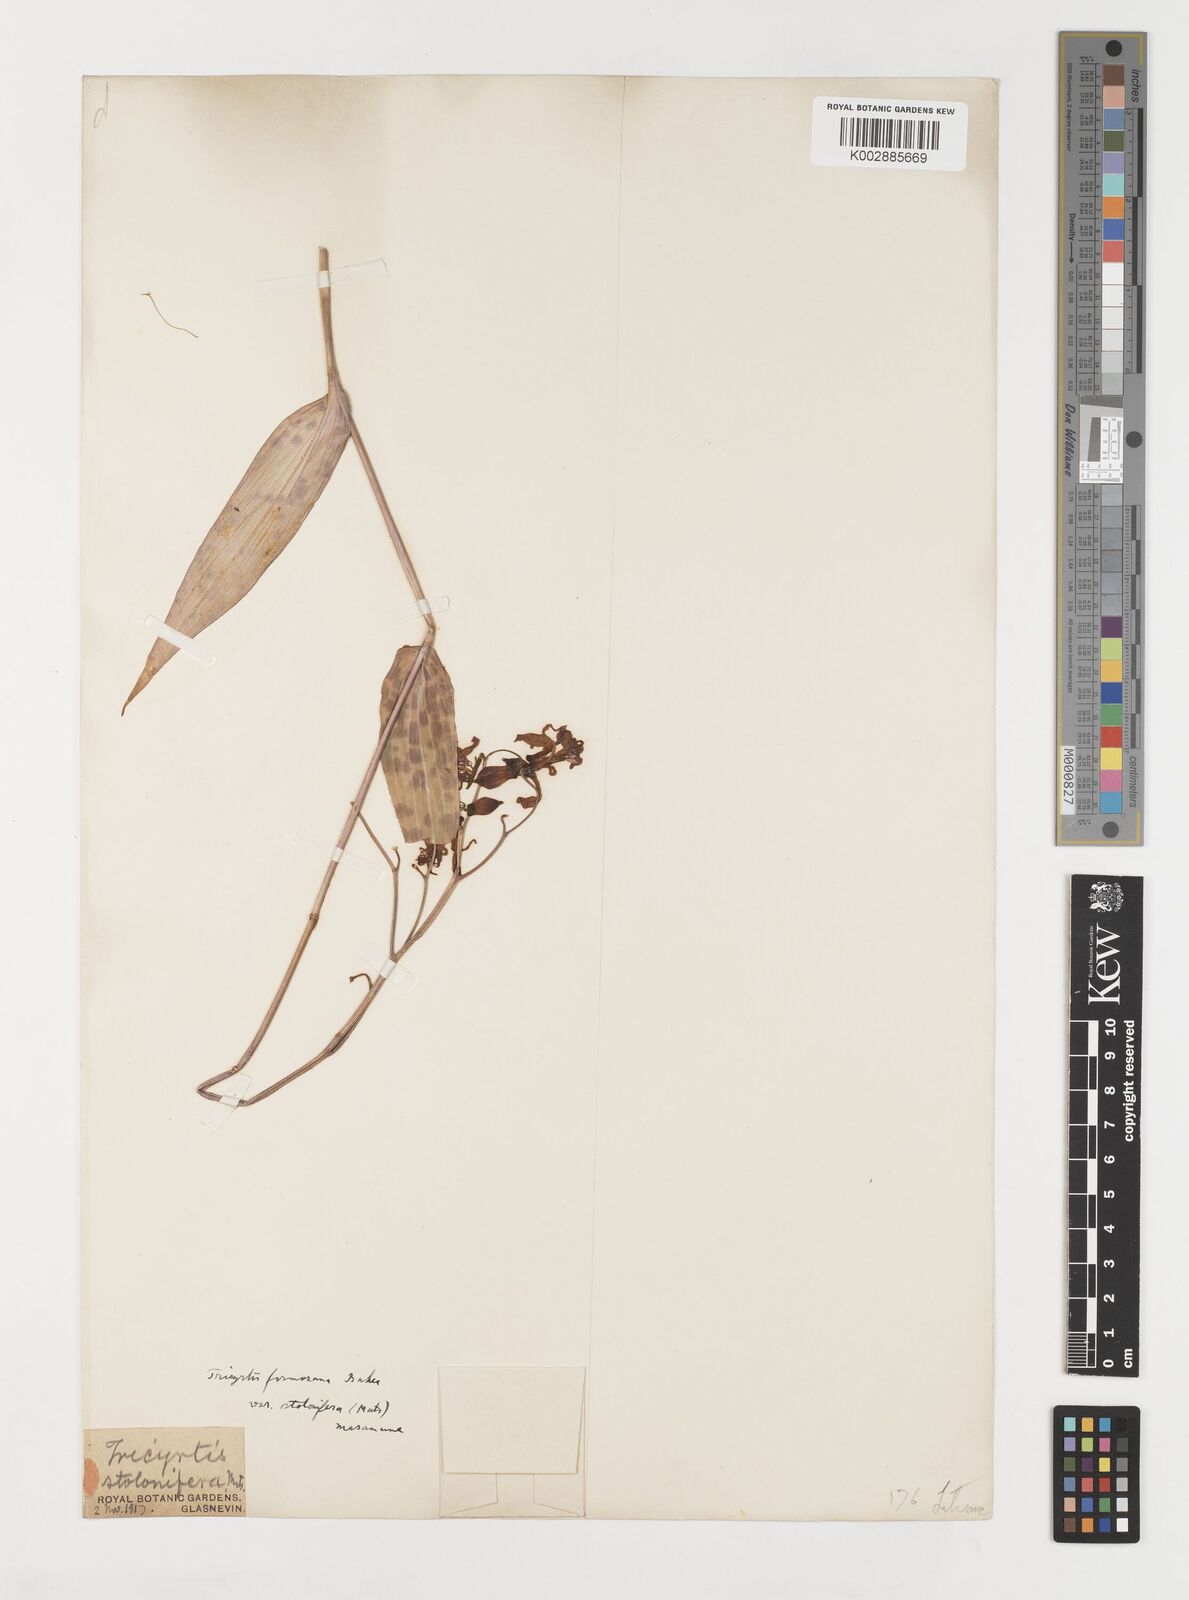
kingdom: Plantae
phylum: Tracheophyta
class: Liliopsida
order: Liliales
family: Liliaceae
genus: Tricyrtis
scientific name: Tricyrtis formosana
